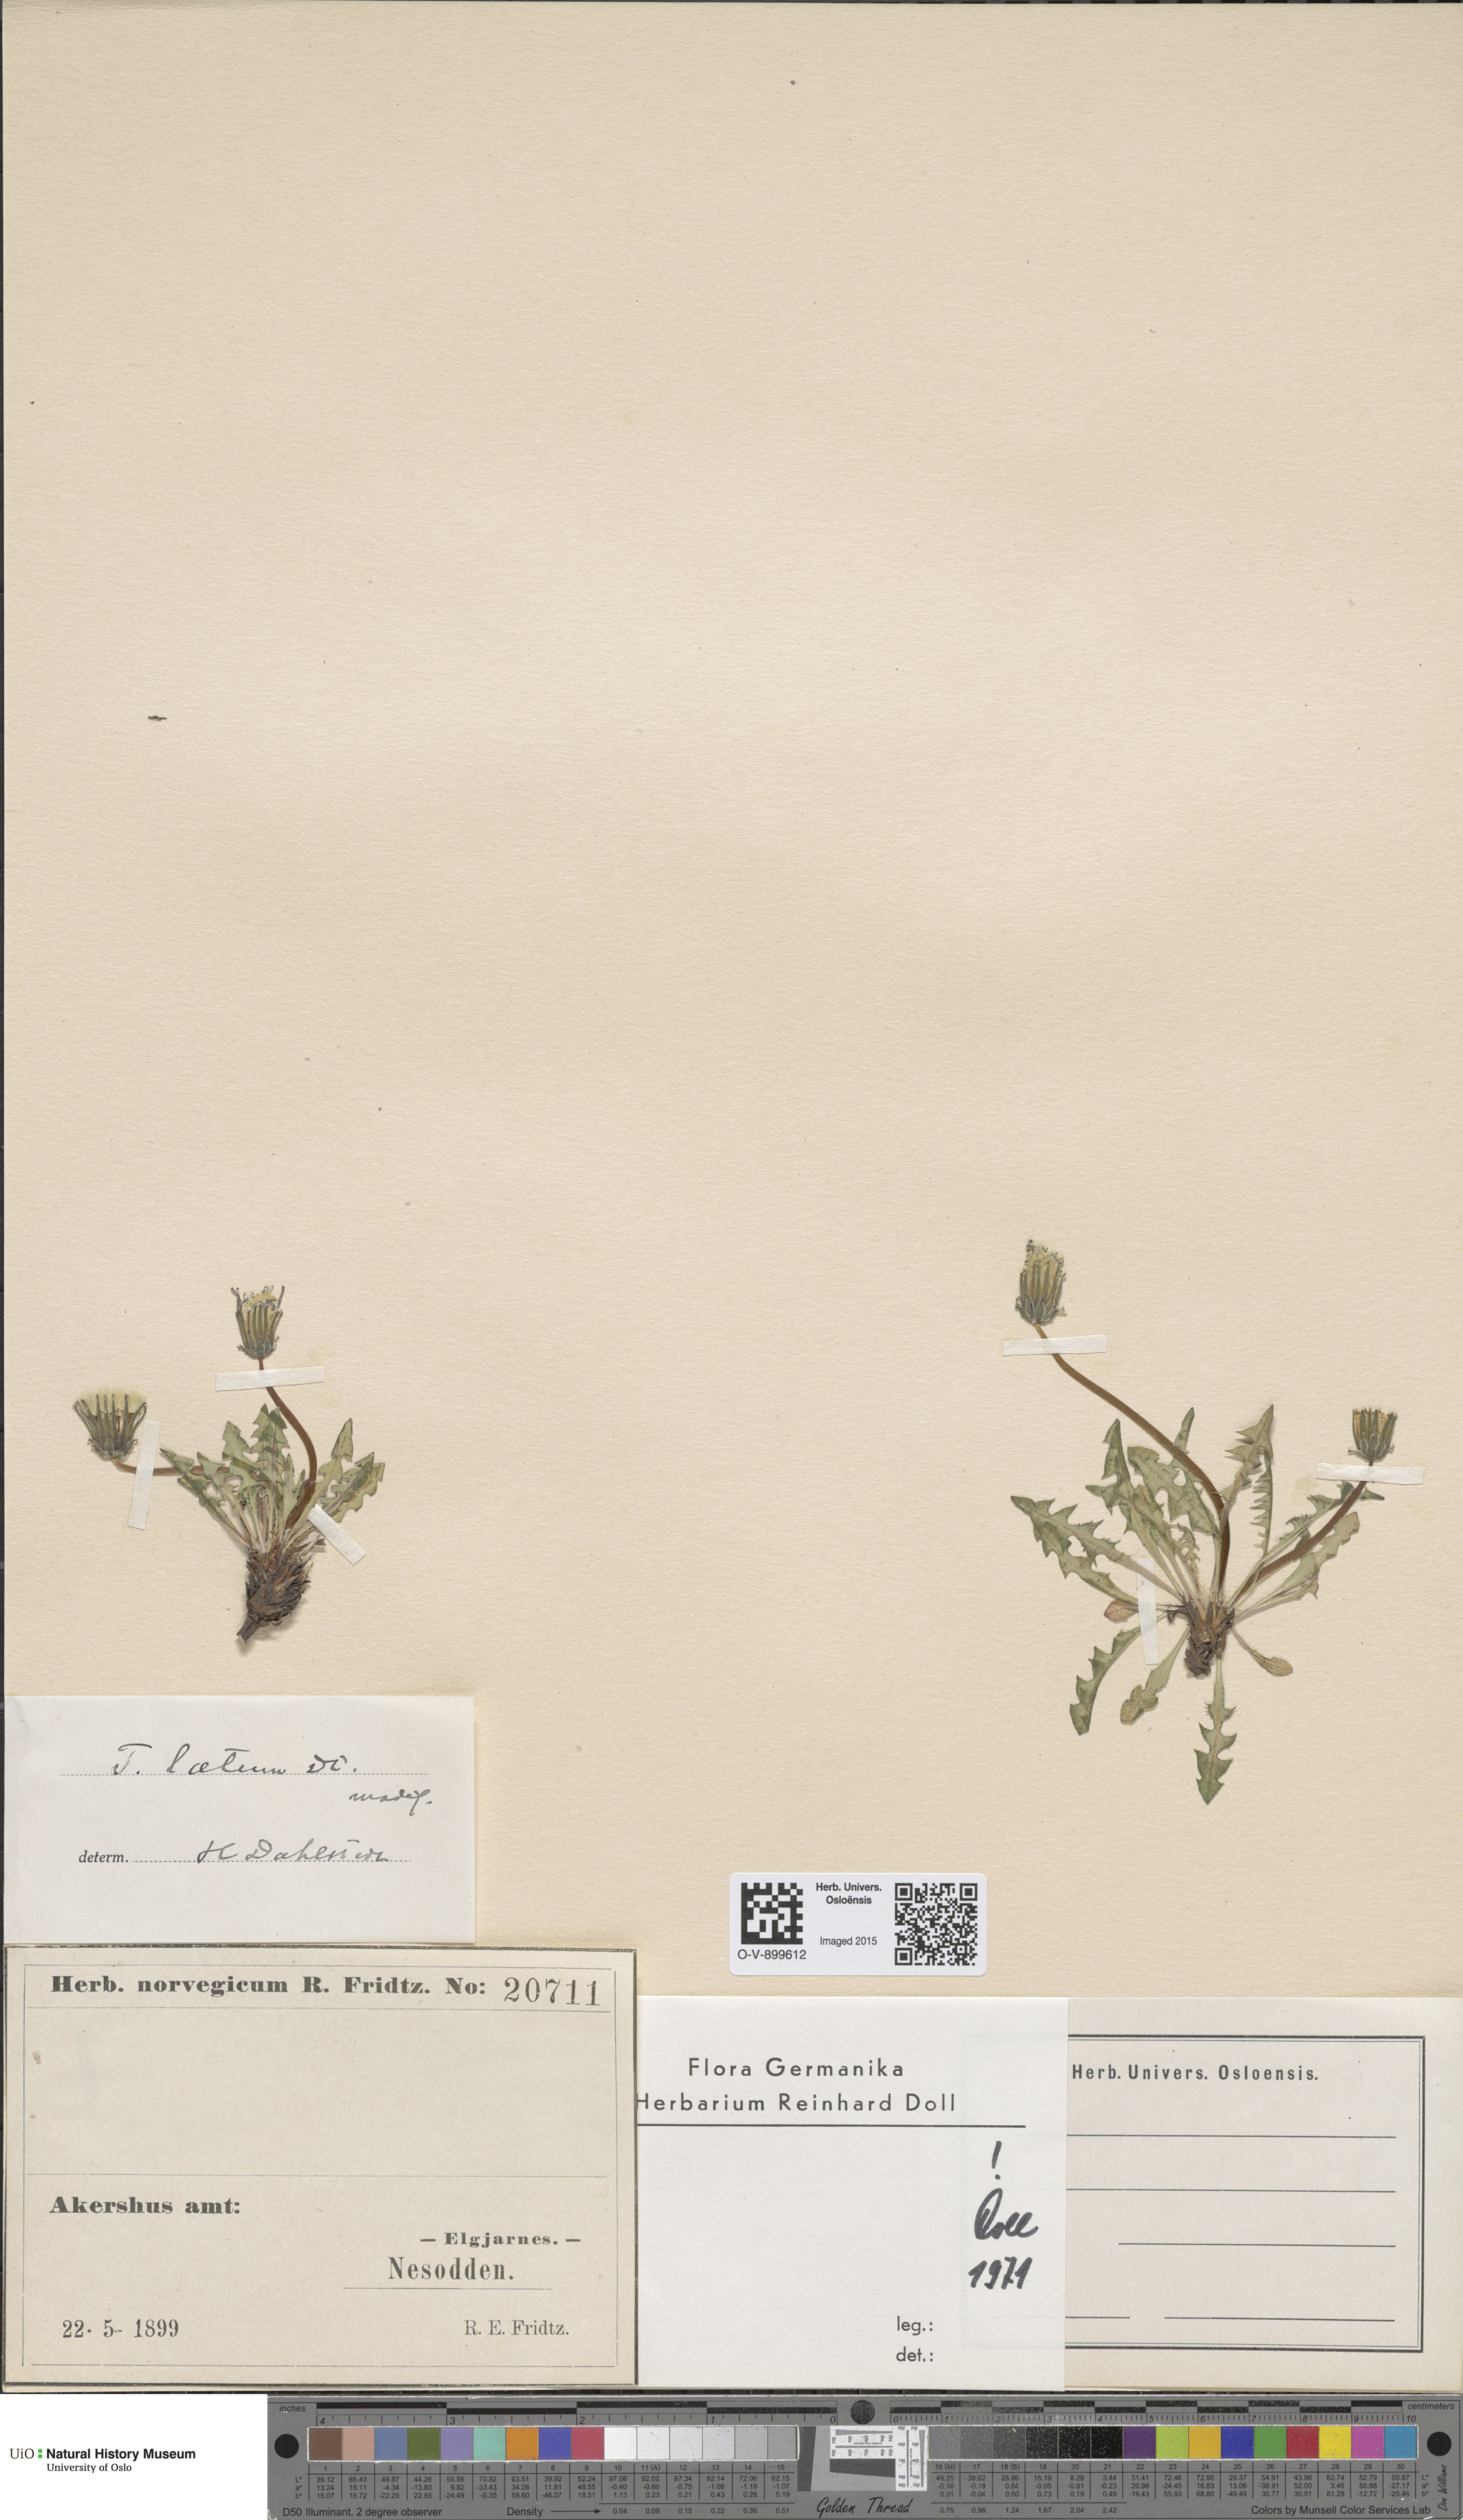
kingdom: Plantae
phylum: Tracheophyta
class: Magnoliopsida
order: Asterales
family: Asteraceae
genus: Taraxacum
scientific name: Taraxacum laetum
